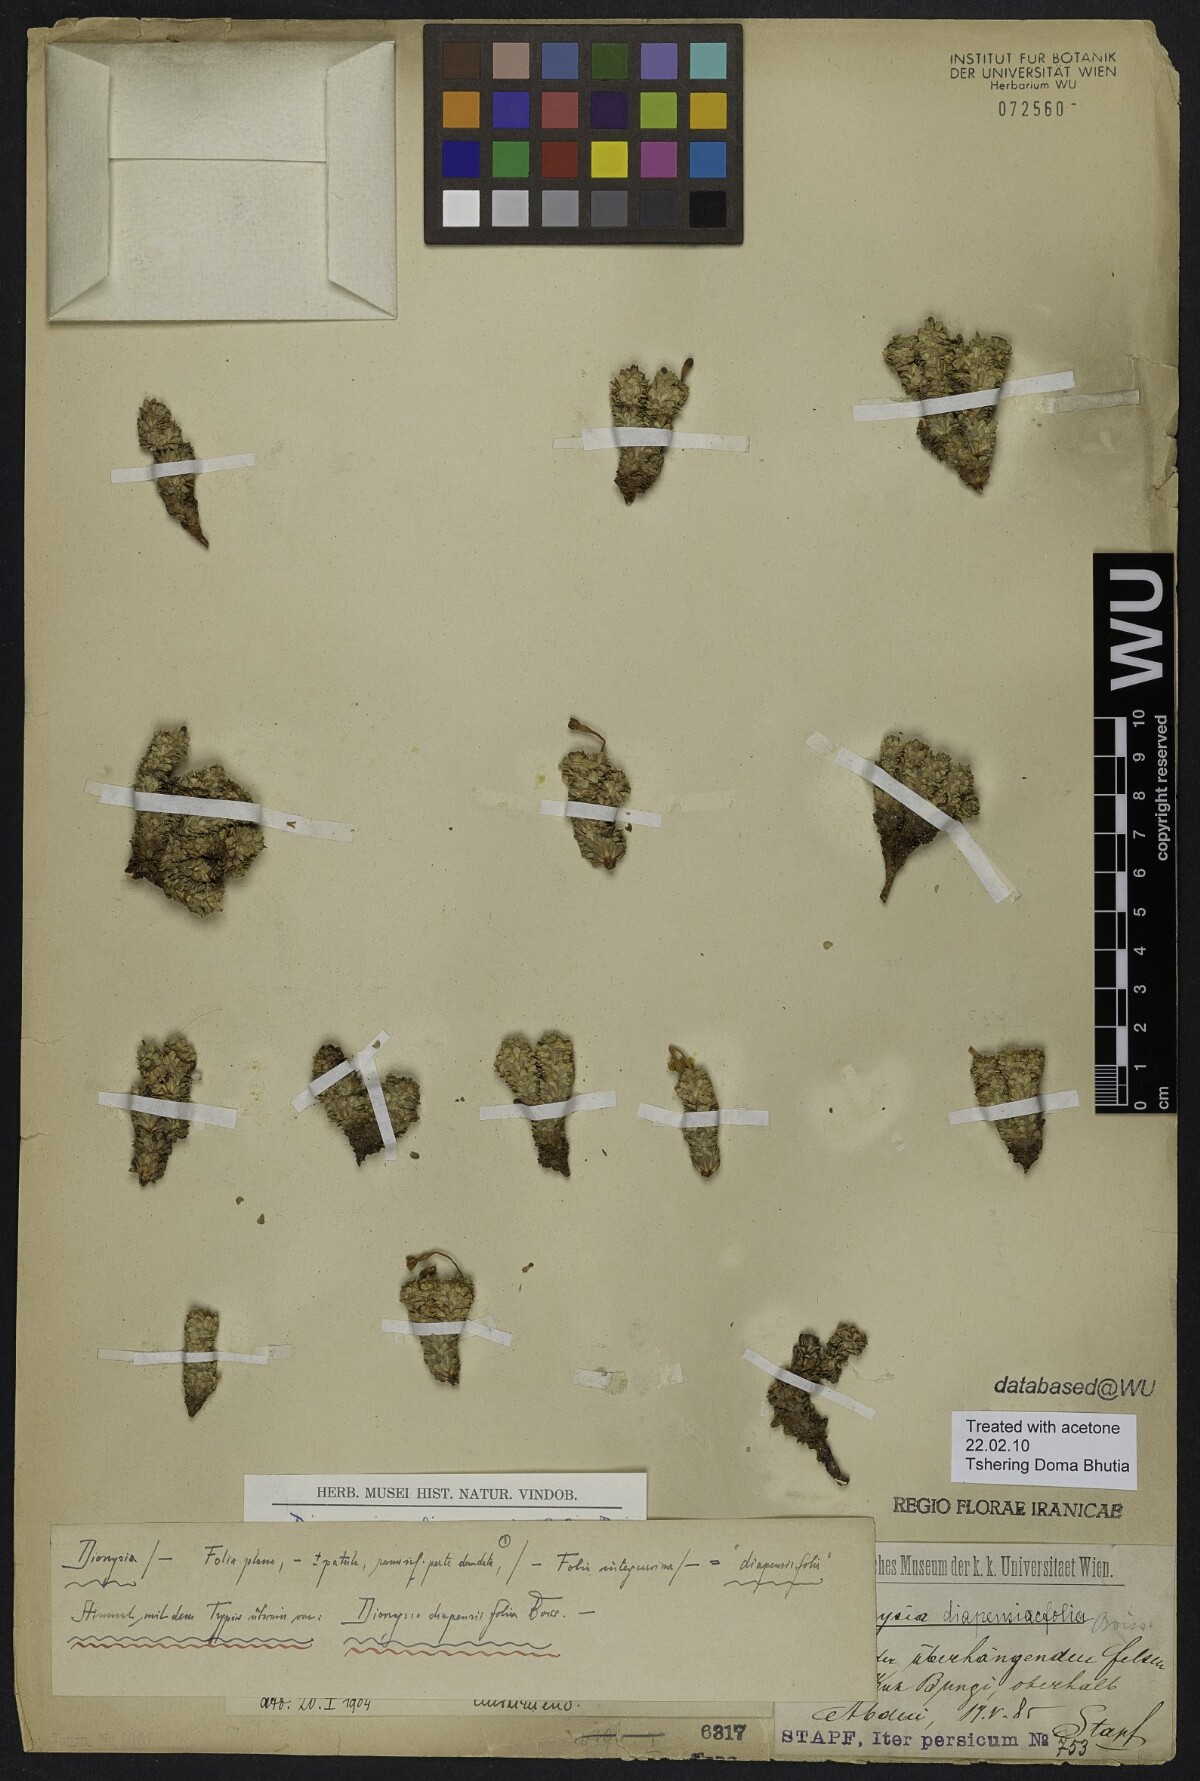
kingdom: Plantae
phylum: Tracheophyta
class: Magnoliopsida
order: Ericales
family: Primulaceae
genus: Dionysia
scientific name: Dionysia diapensiifolia
